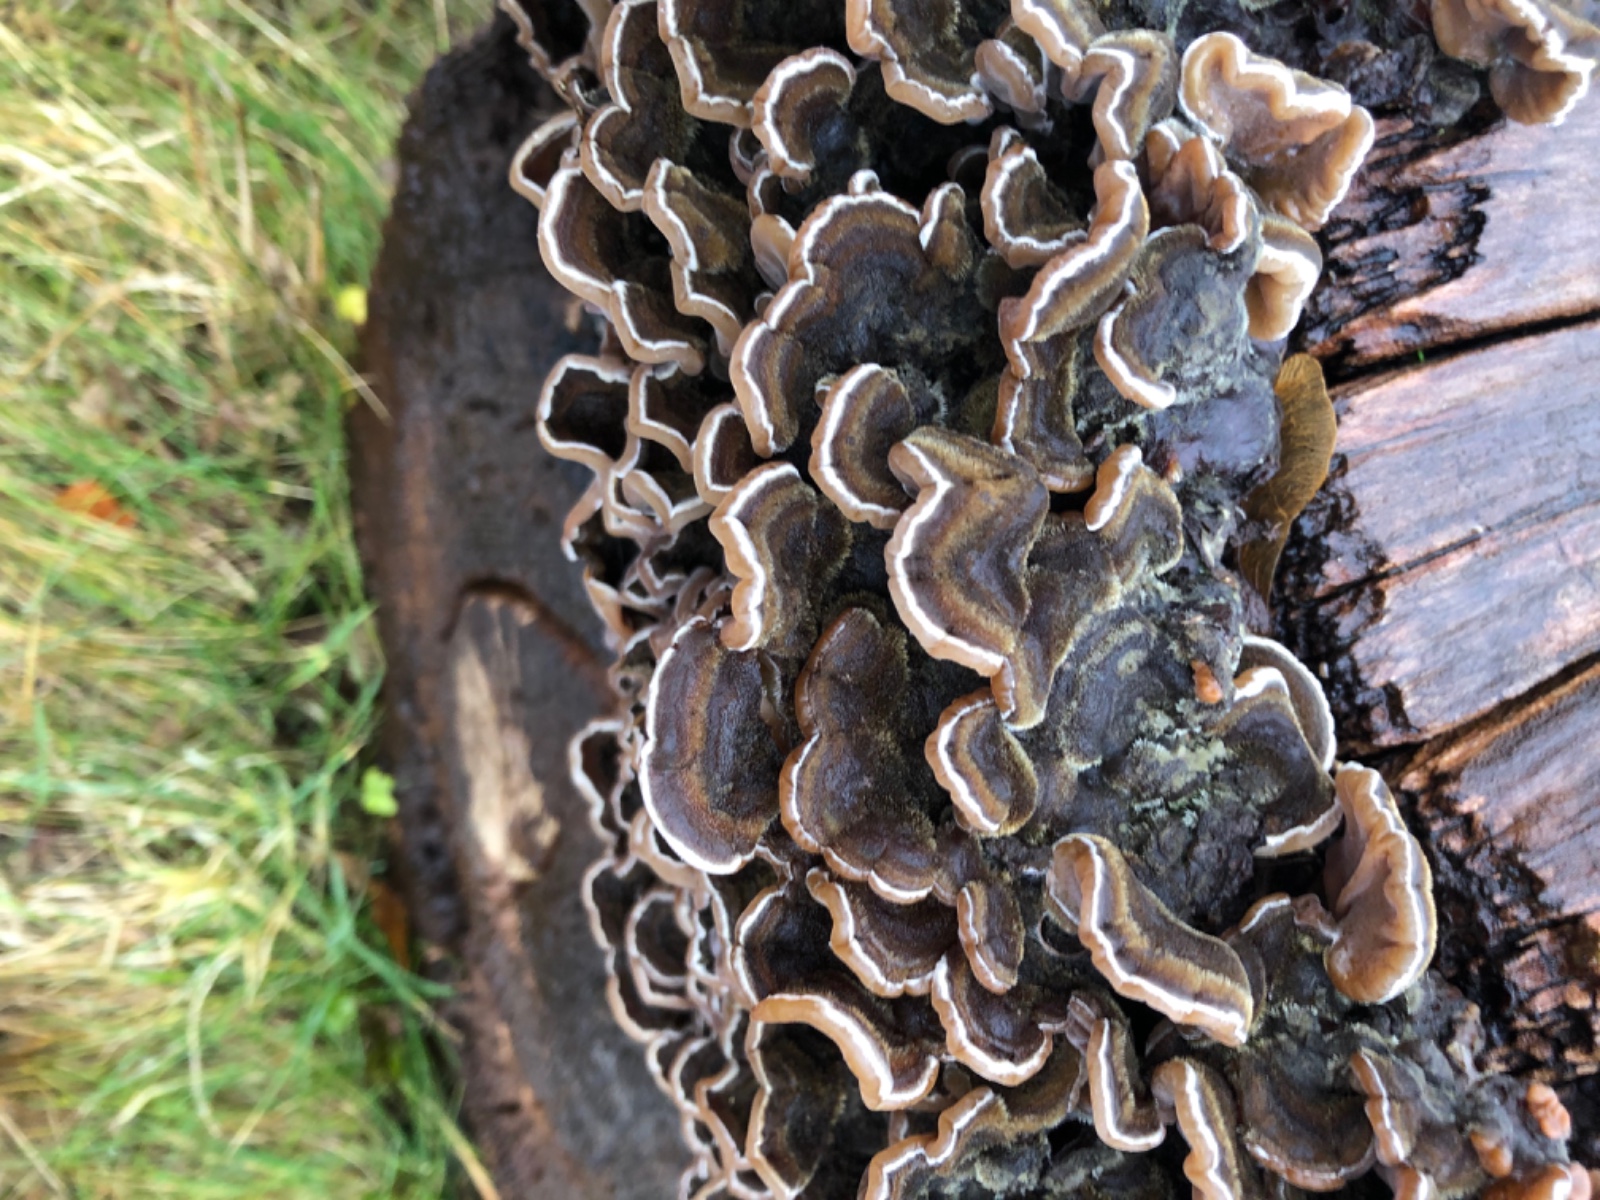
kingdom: Fungi
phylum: Basidiomycota
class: Agaricomycetes
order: Auriculariales
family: Auriculariaceae
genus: Auricularia
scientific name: Auricularia mesenterica
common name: håret judasøre
